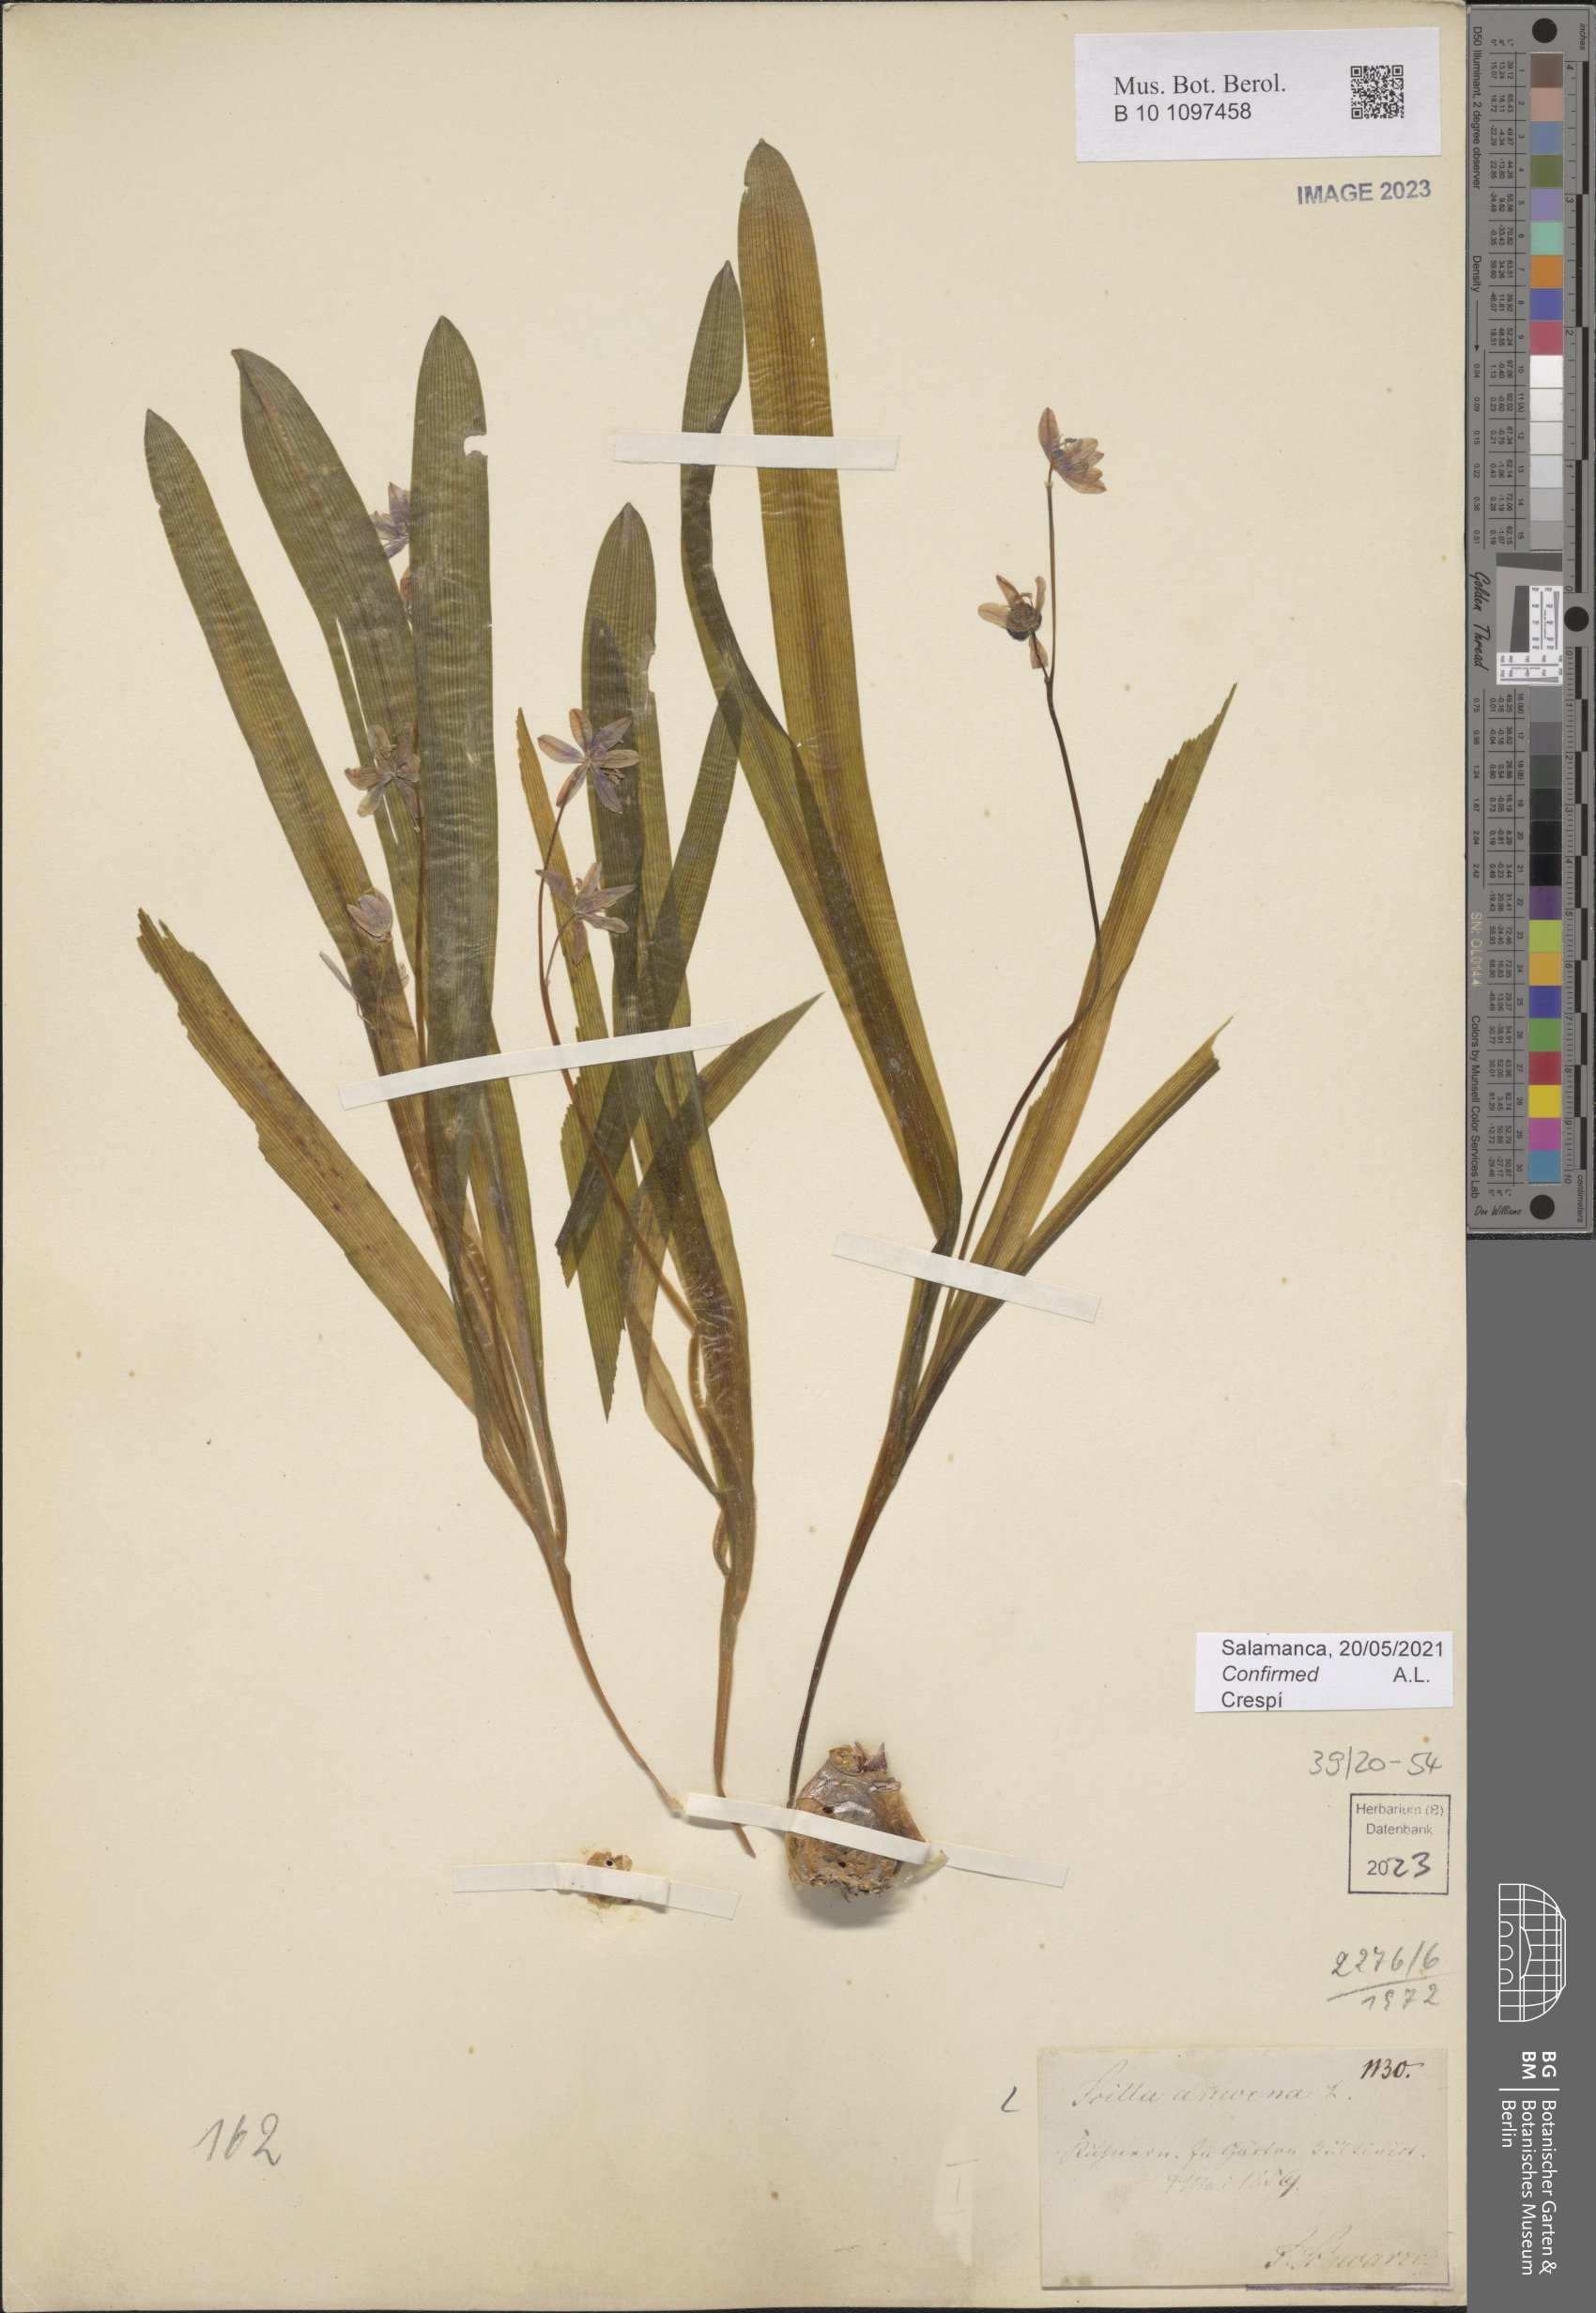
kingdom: Plantae
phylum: Tracheophyta
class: Liliopsida
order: Asparagales
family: Asparagaceae
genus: Scilla
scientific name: Scilla amoena
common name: Star-hyacinth
